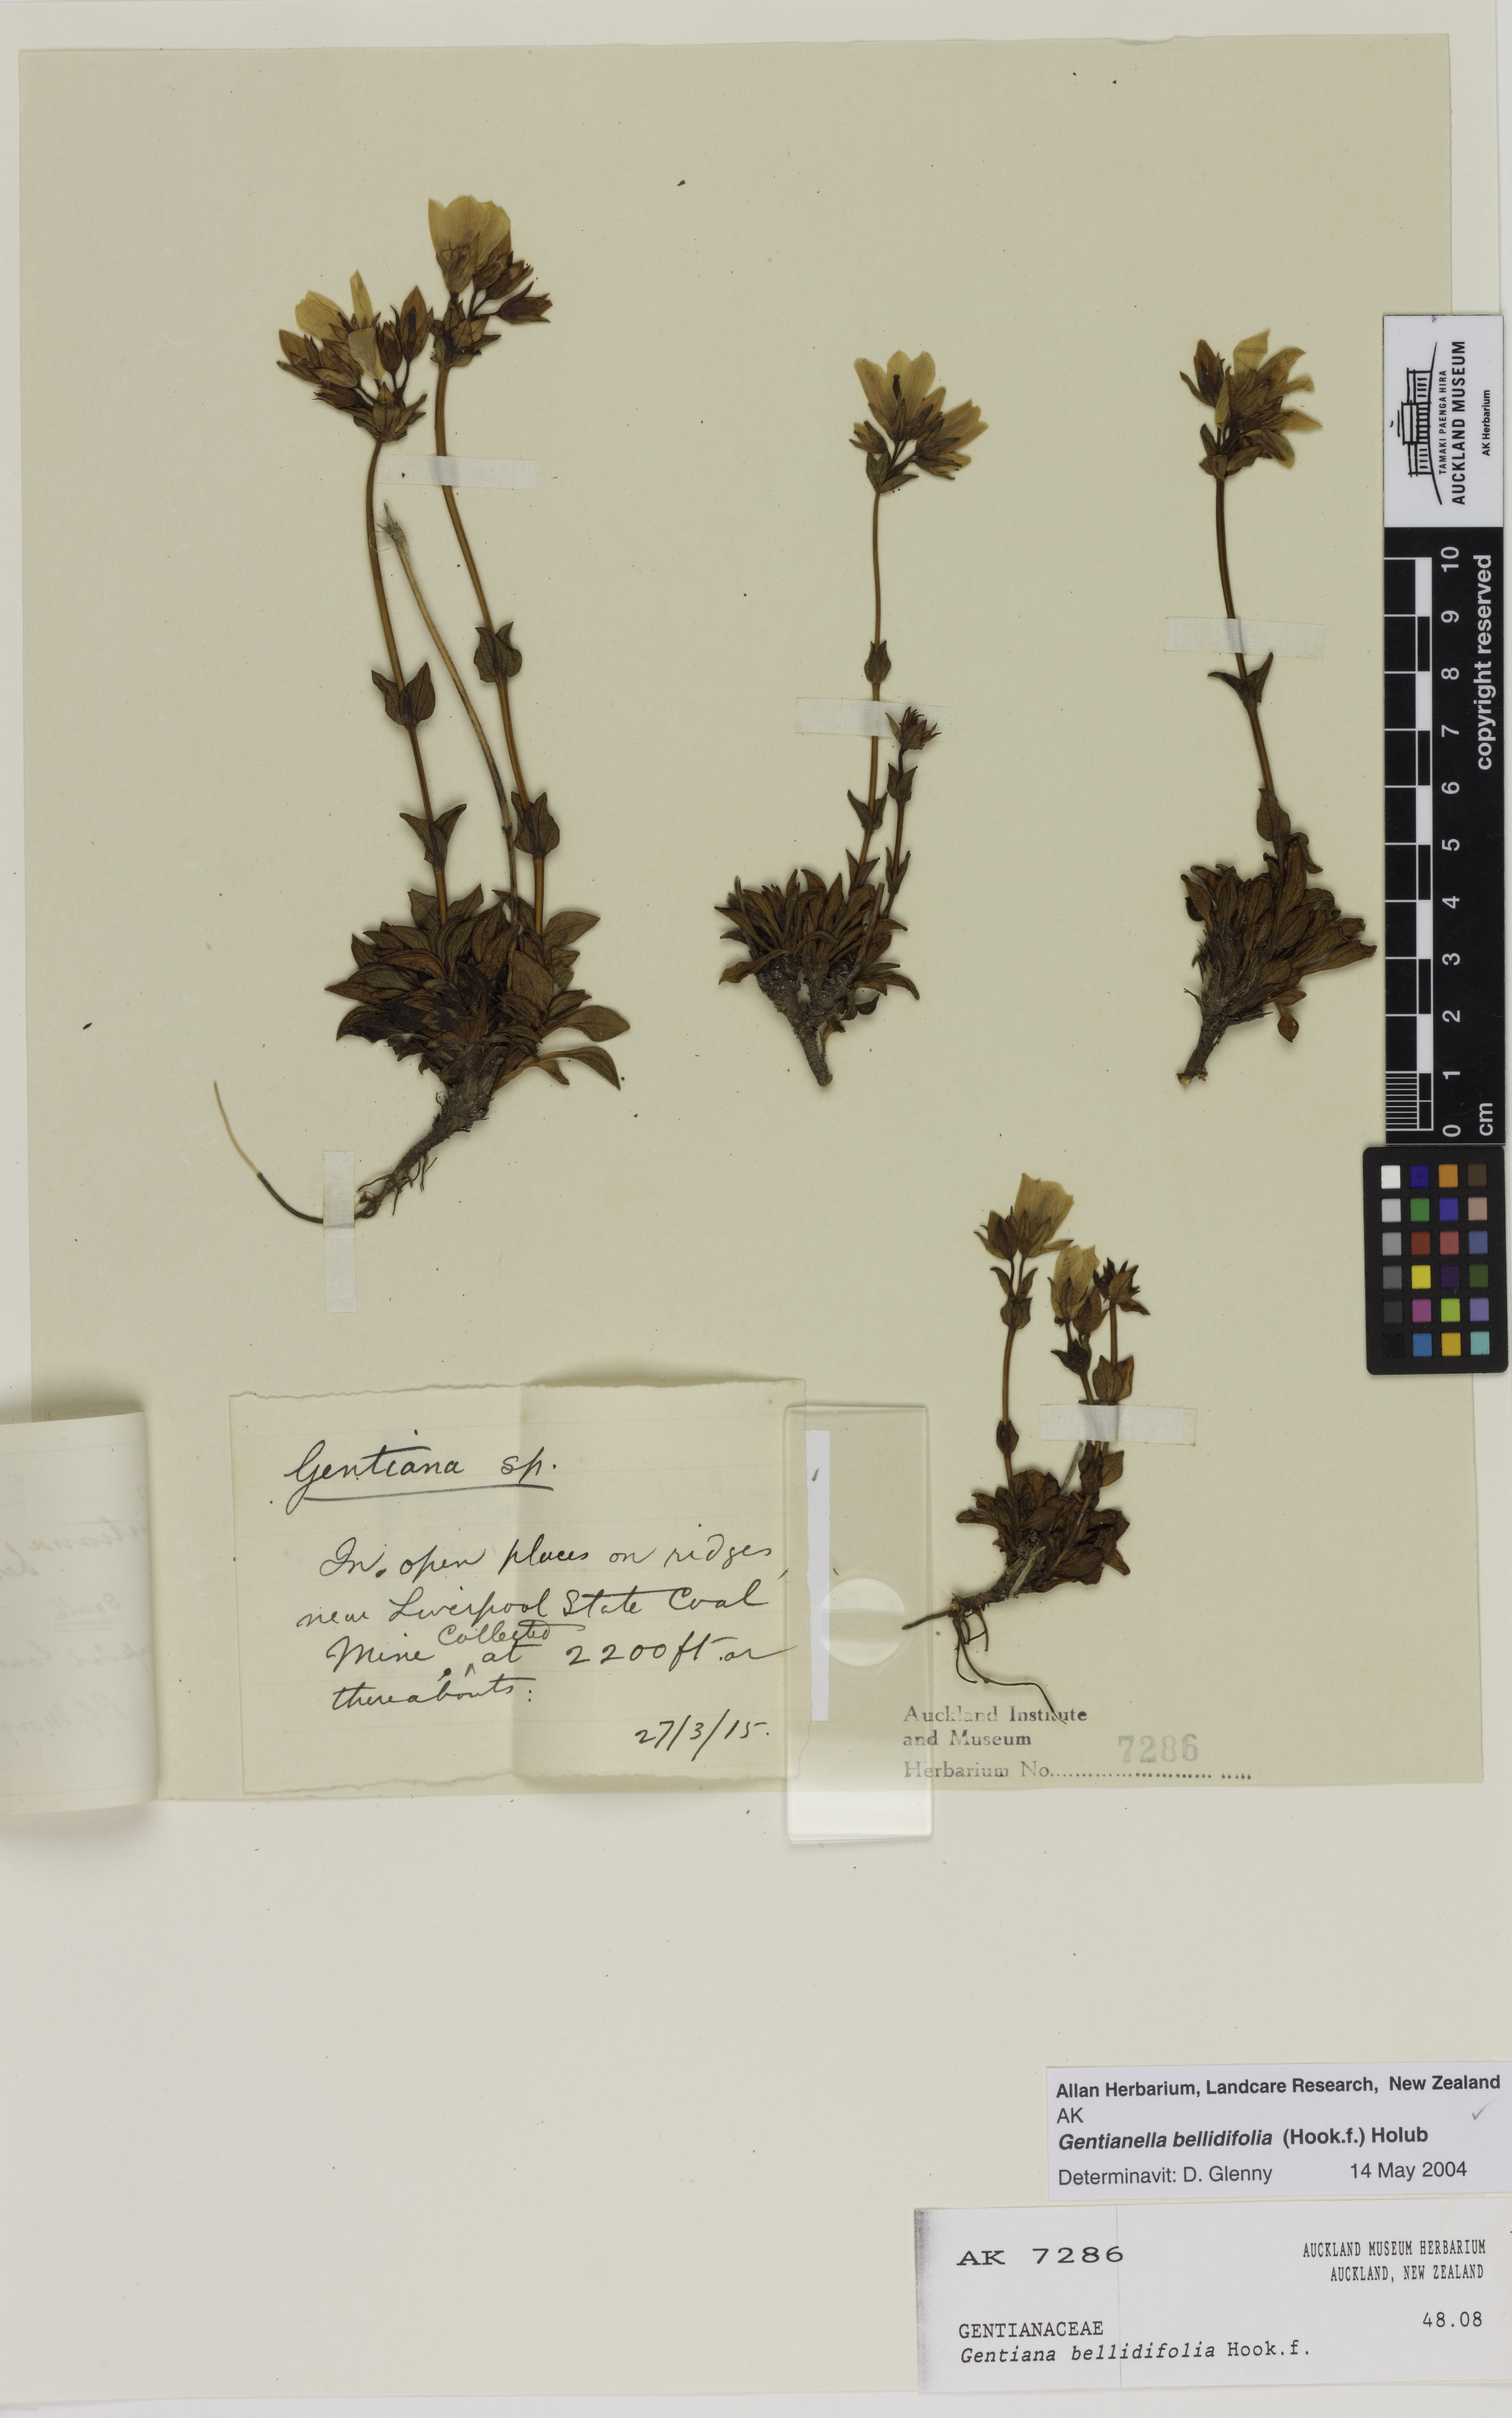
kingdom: Plantae
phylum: Tracheophyta
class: Magnoliopsida
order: Gentianales
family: Gentianaceae
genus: Gentianella
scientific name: Gentianella bellidifolia
